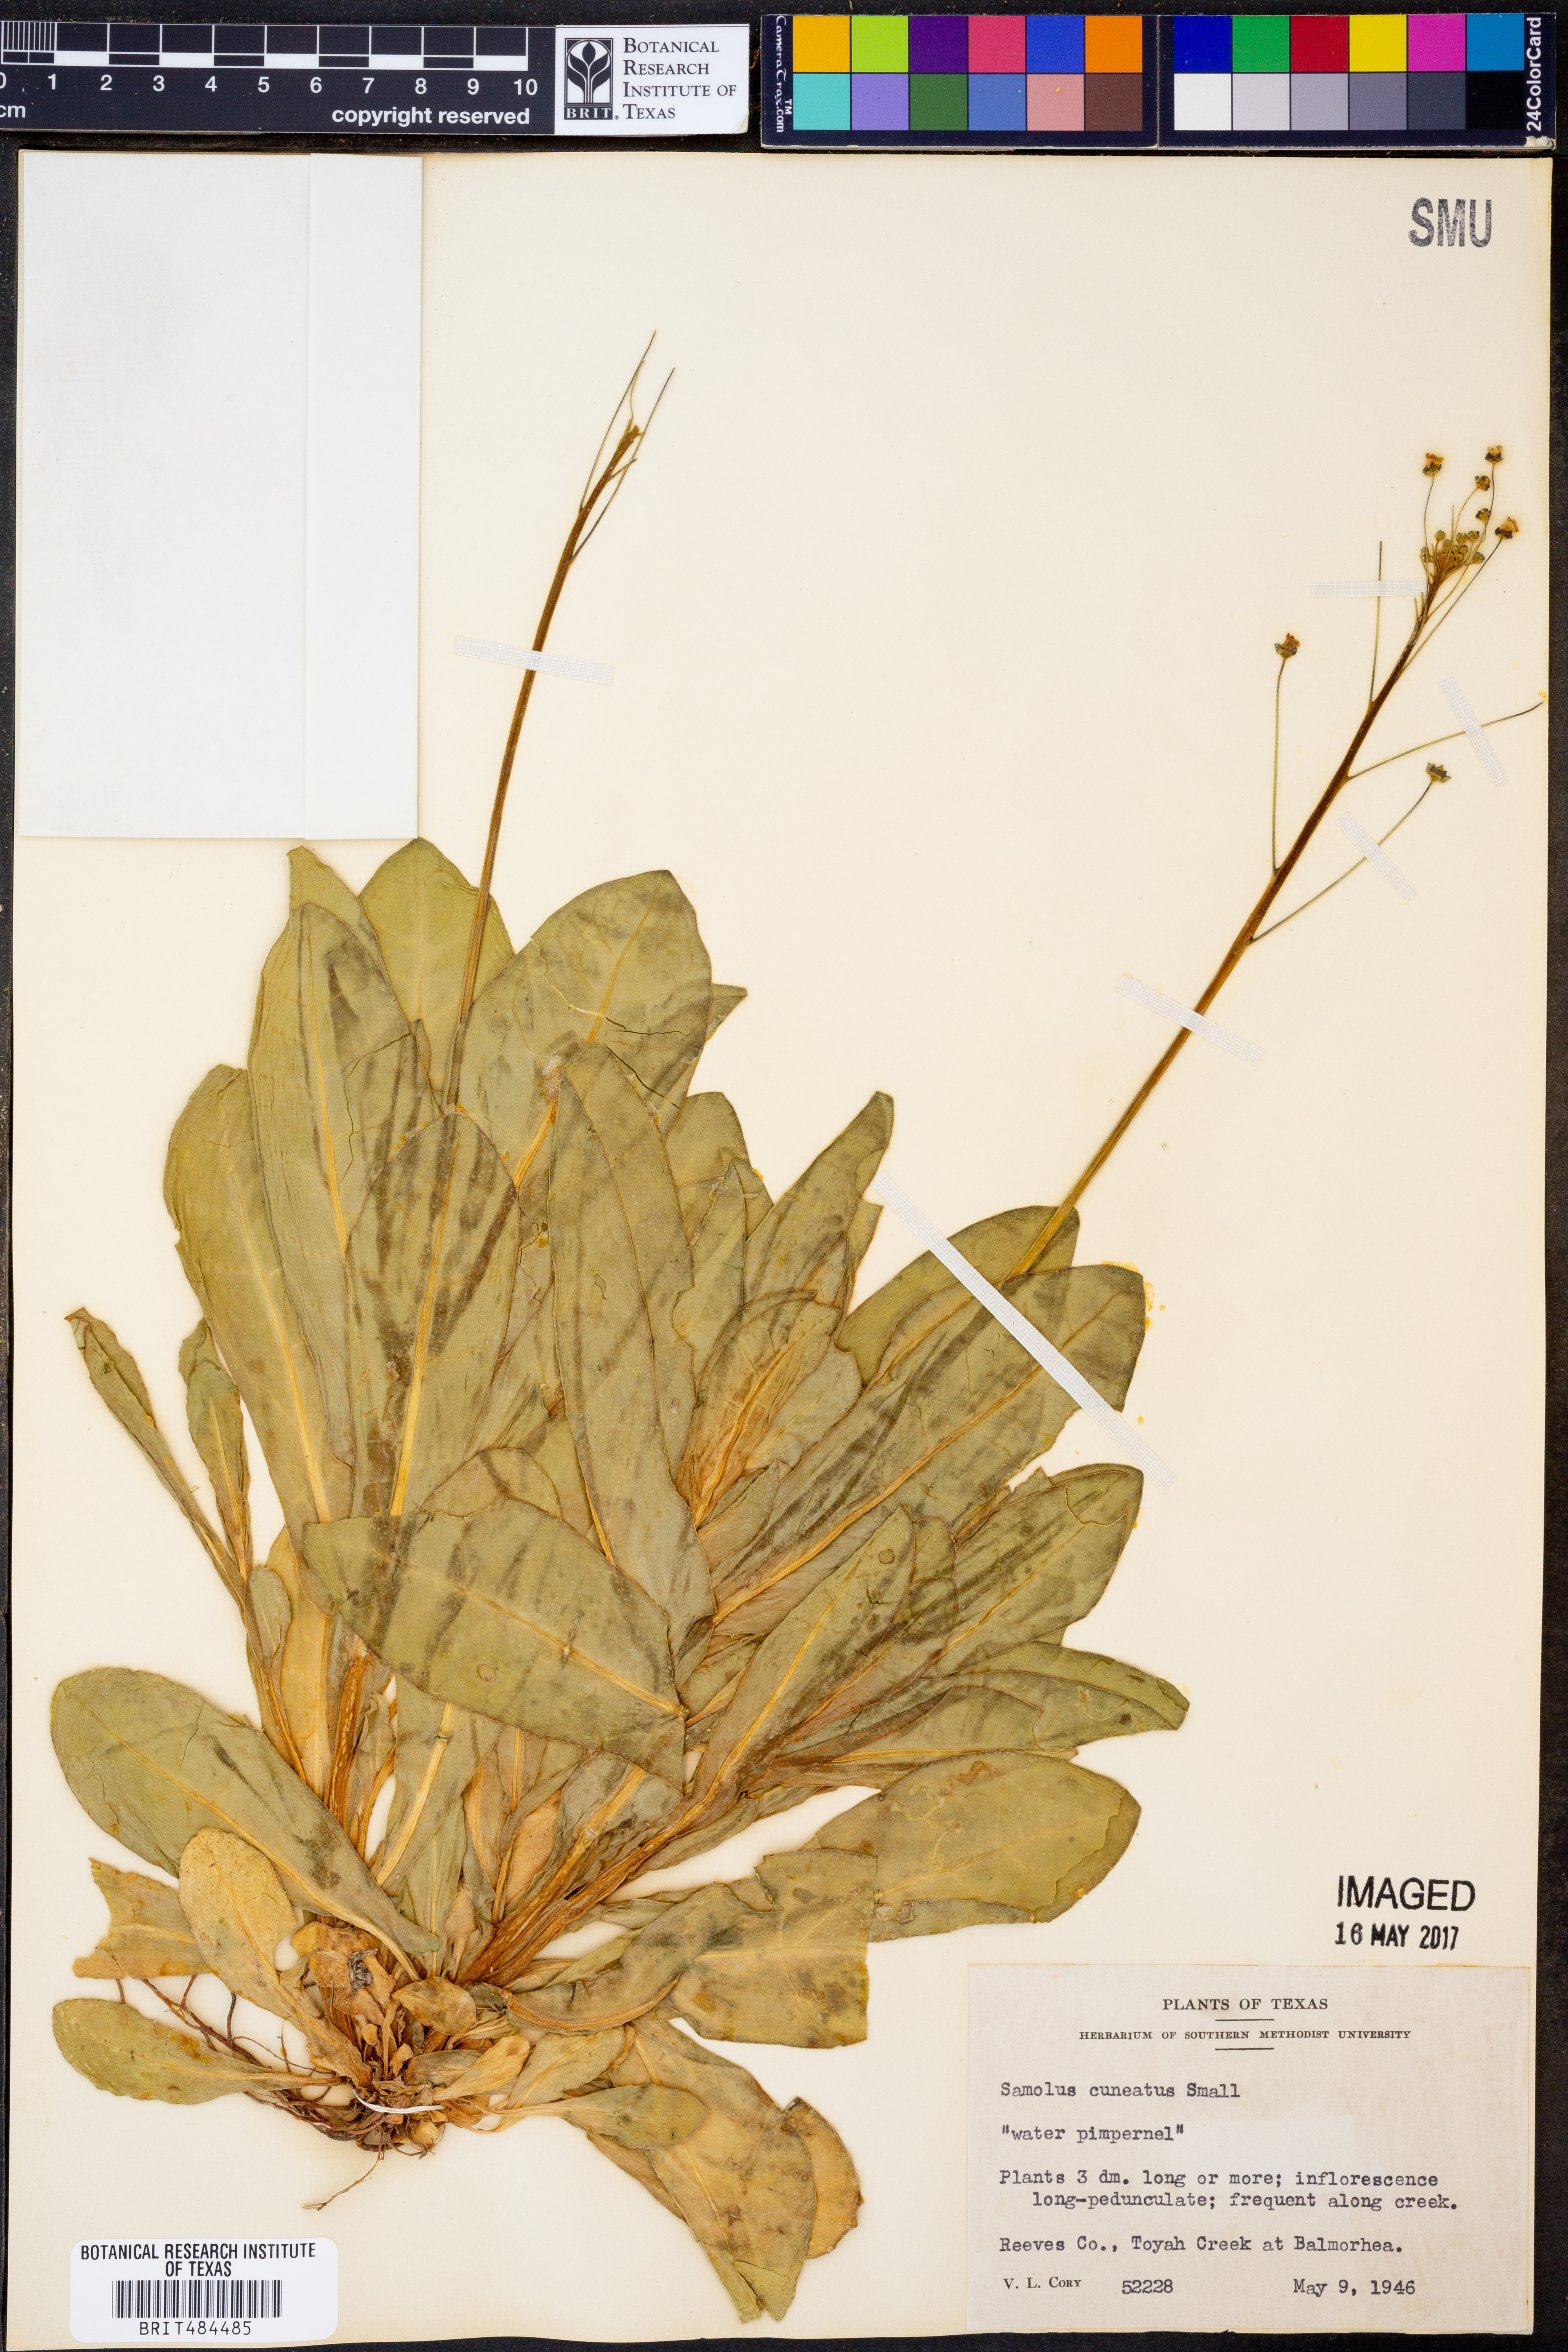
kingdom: Plantae
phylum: Tracheophyta
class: Magnoliopsida
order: Ericales
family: Primulaceae
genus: Samolus
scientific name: Samolus ebracteatus
